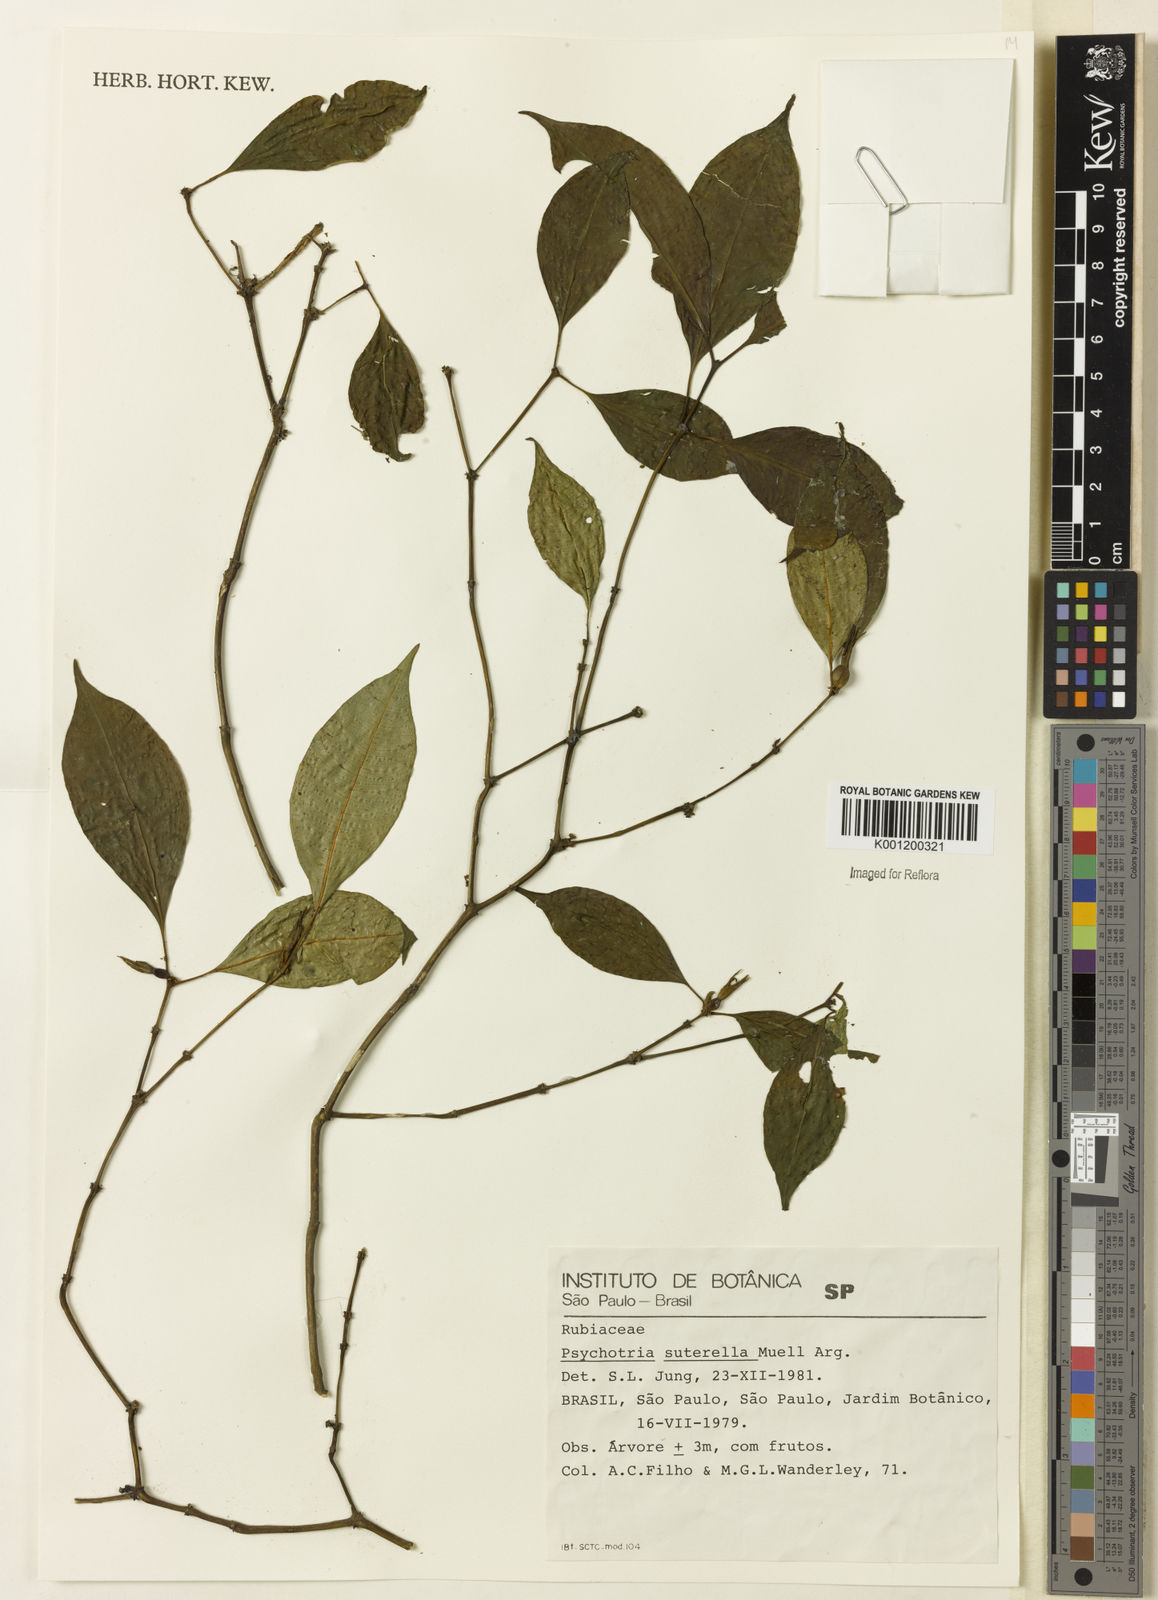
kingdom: Plantae
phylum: Tracheophyta
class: Magnoliopsida
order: Gentianales
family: Rubiaceae
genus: Psychotria
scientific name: Psychotria
